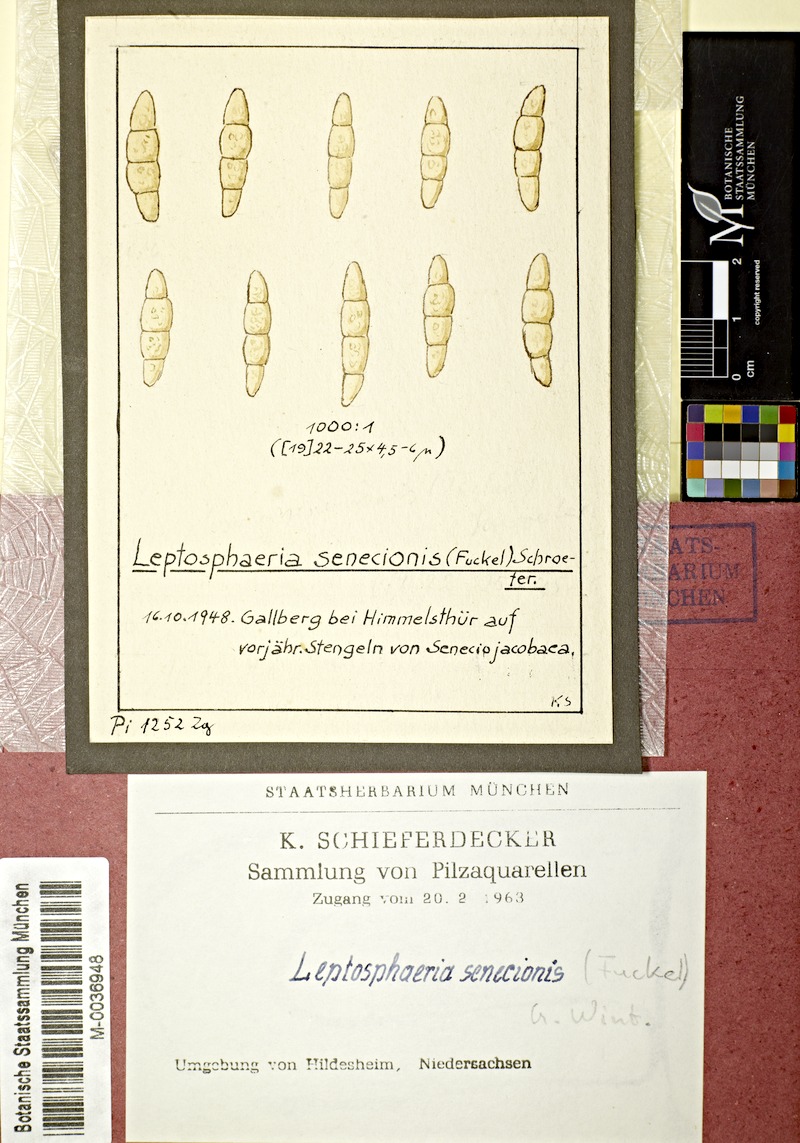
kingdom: Plantae
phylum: Tracheophyta
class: Magnoliopsida
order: Asterales
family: Asteraceae
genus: Senecio
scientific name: Senecio jacobaea
